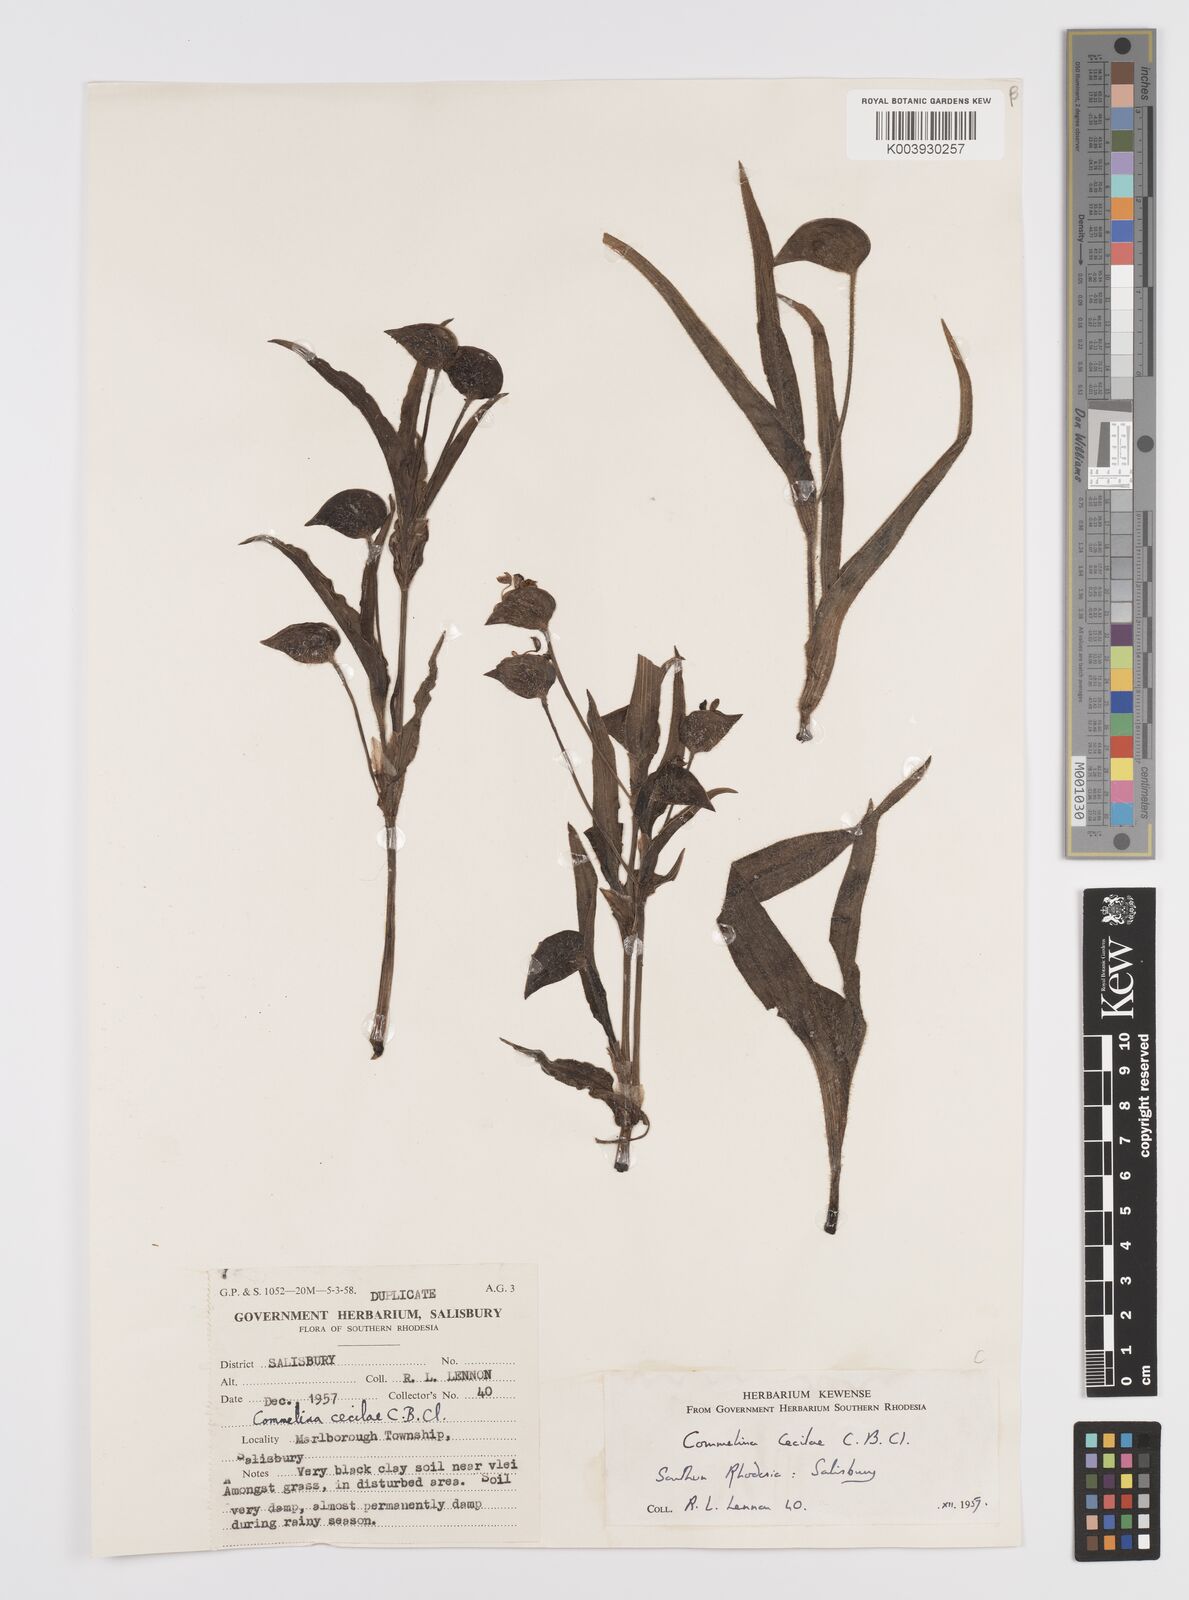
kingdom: Plantae
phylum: Tracheophyta
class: Liliopsida
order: Commelinales
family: Commelinaceae
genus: Commelina
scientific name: Commelina schweinfurthii
